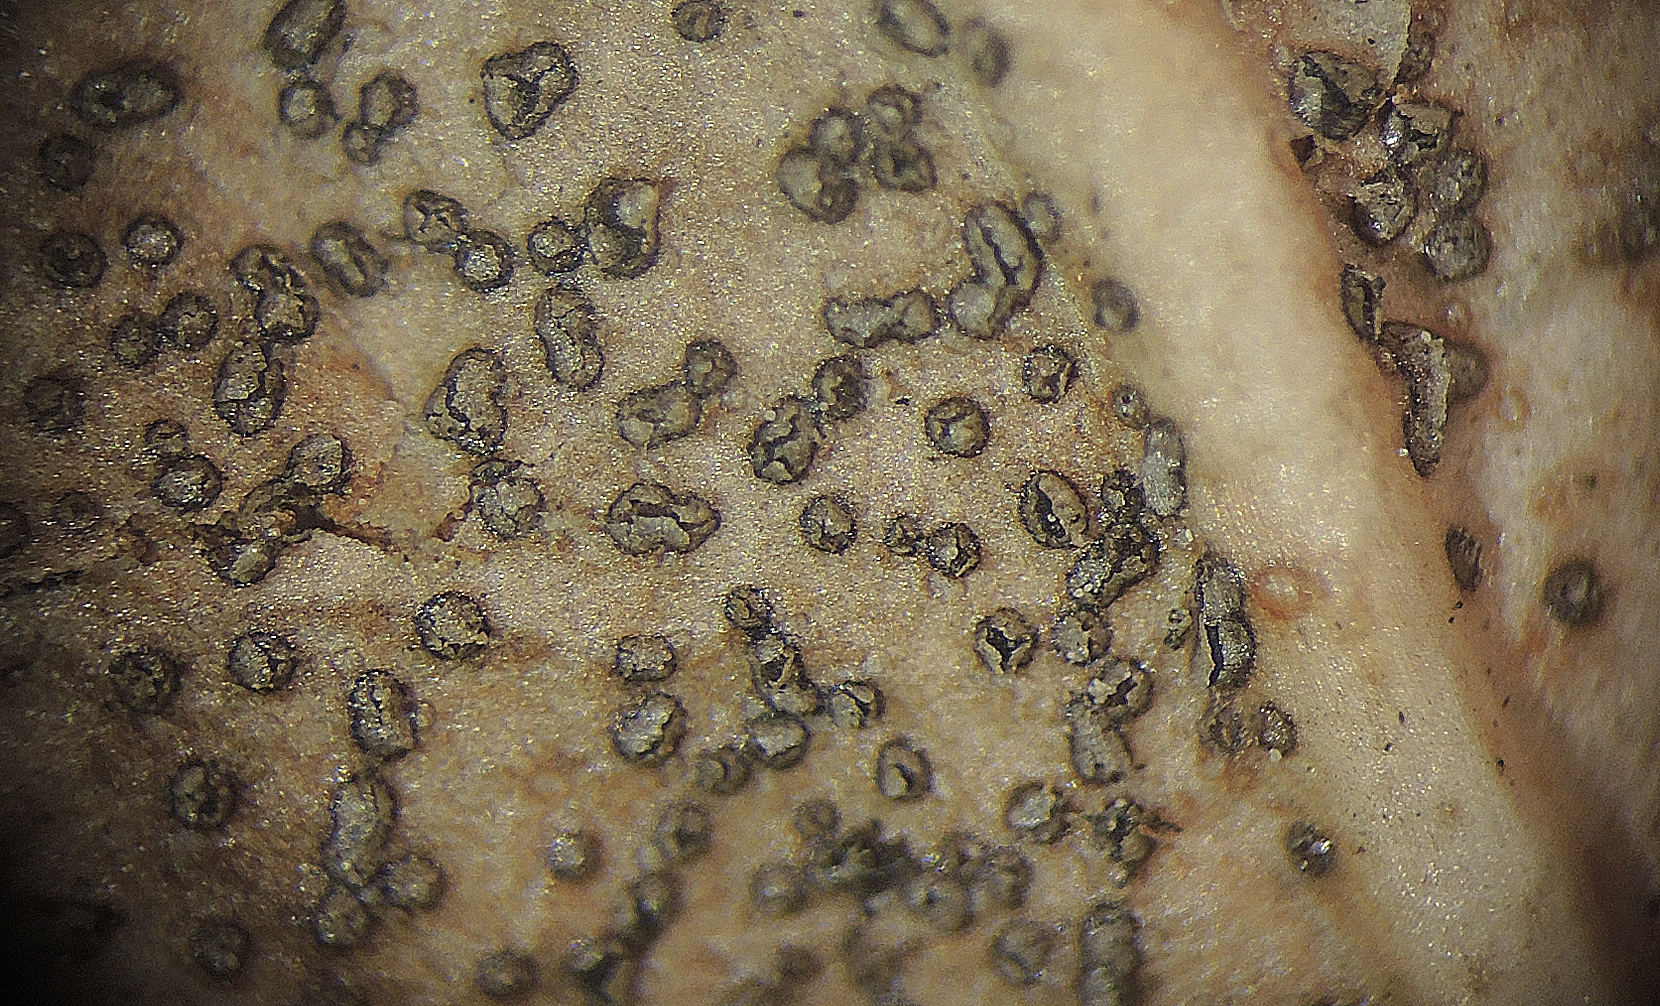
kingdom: Fungi
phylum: Ascomycota
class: Leotiomycetes
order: Helotiales
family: Cenangiaceae
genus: Trochila
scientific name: Trochila craterium
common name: vedbend-lågskive
